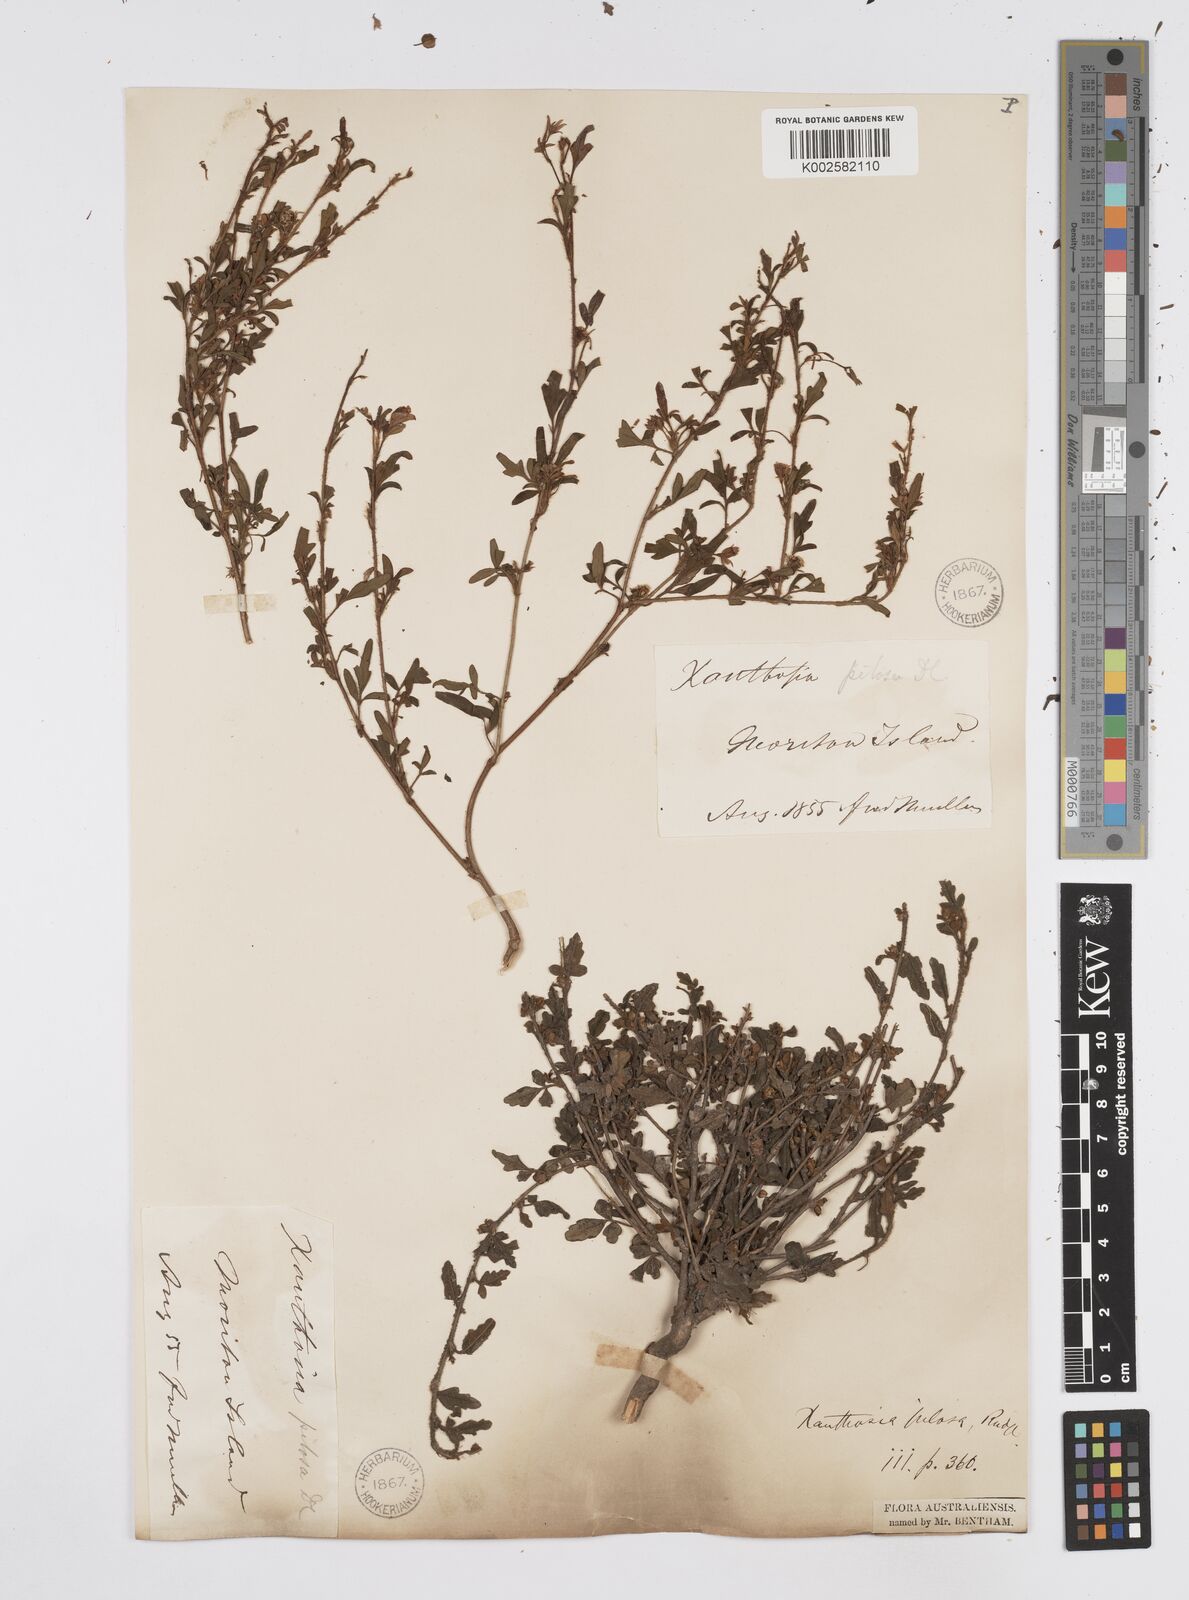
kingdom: Plantae
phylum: Tracheophyta
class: Magnoliopsida
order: Apiales
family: Apiaceae
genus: Xanthosia
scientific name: Xanthosia pilosa
